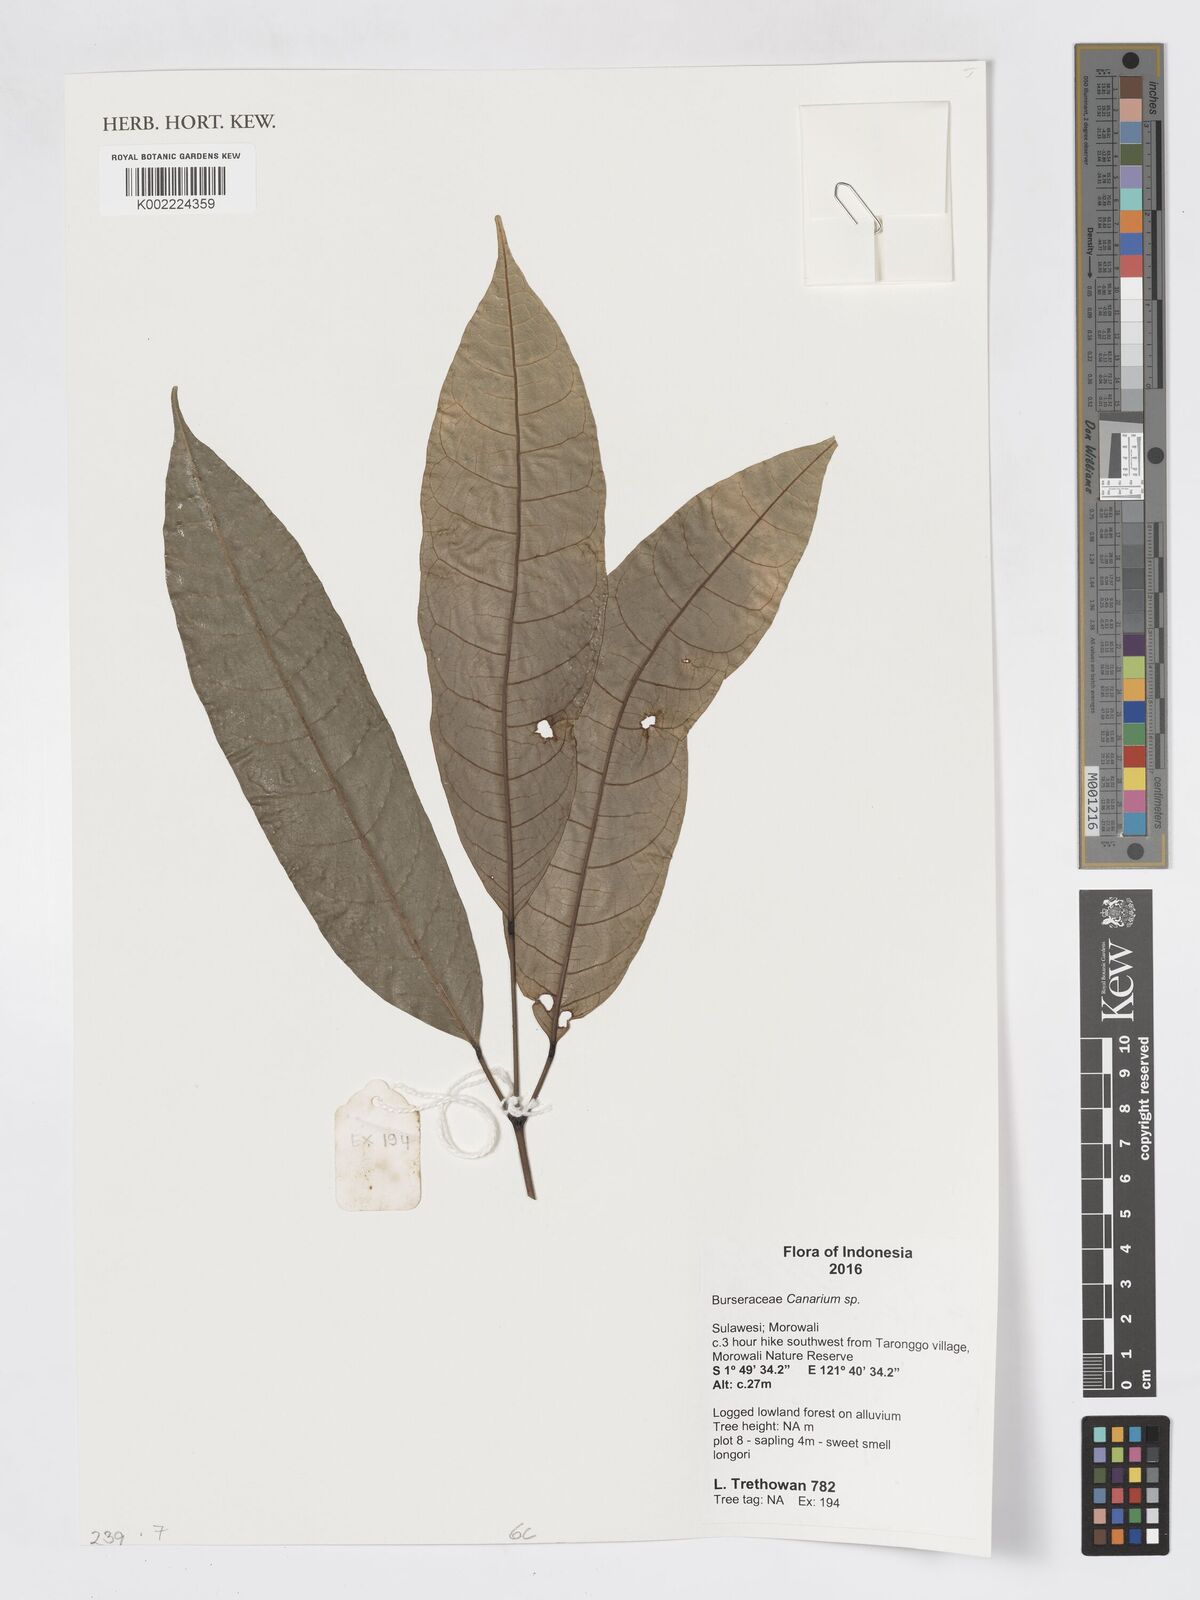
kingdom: Plantae
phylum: Tracheophyta
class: Magnoliopsida
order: Sapindales
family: Burseraceae
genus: Canarium
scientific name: Canarium
